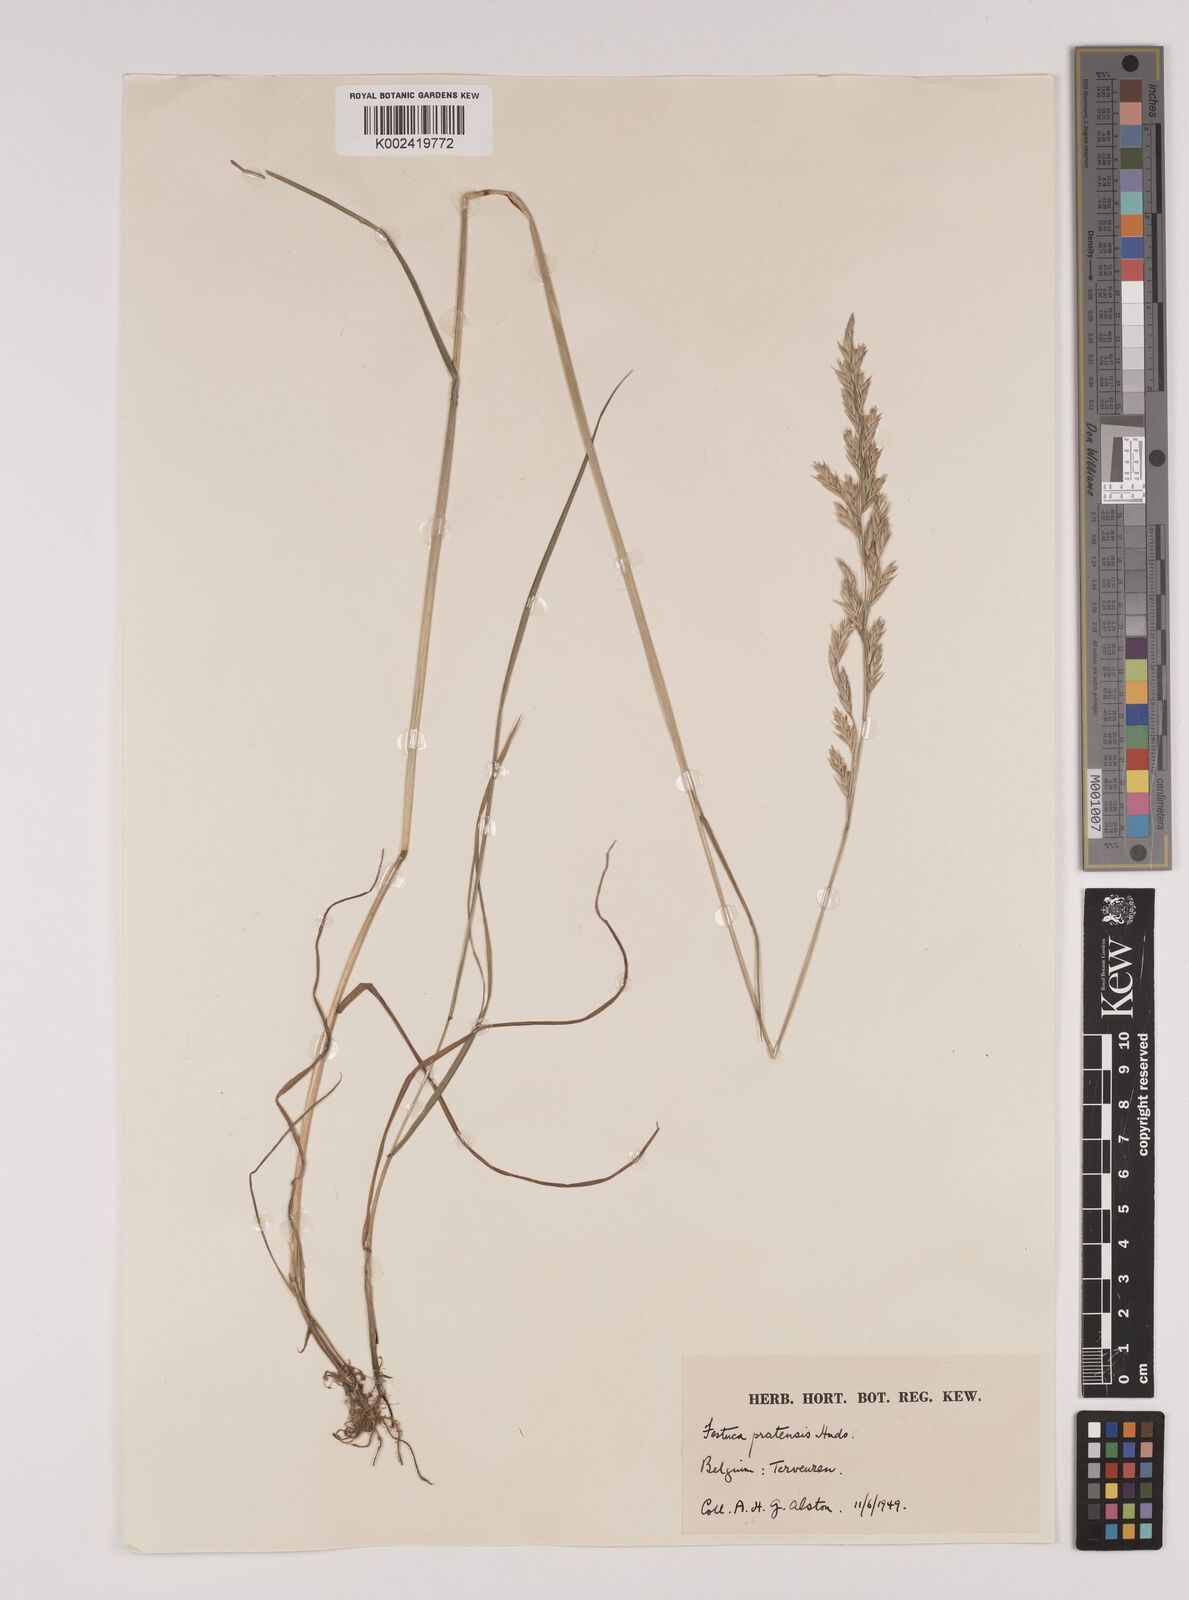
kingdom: Plantae
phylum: Tracheophyta
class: Liliopsida
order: Poales
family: Poaceae
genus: Lolium
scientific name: Lolium pratense
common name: Dover grass
